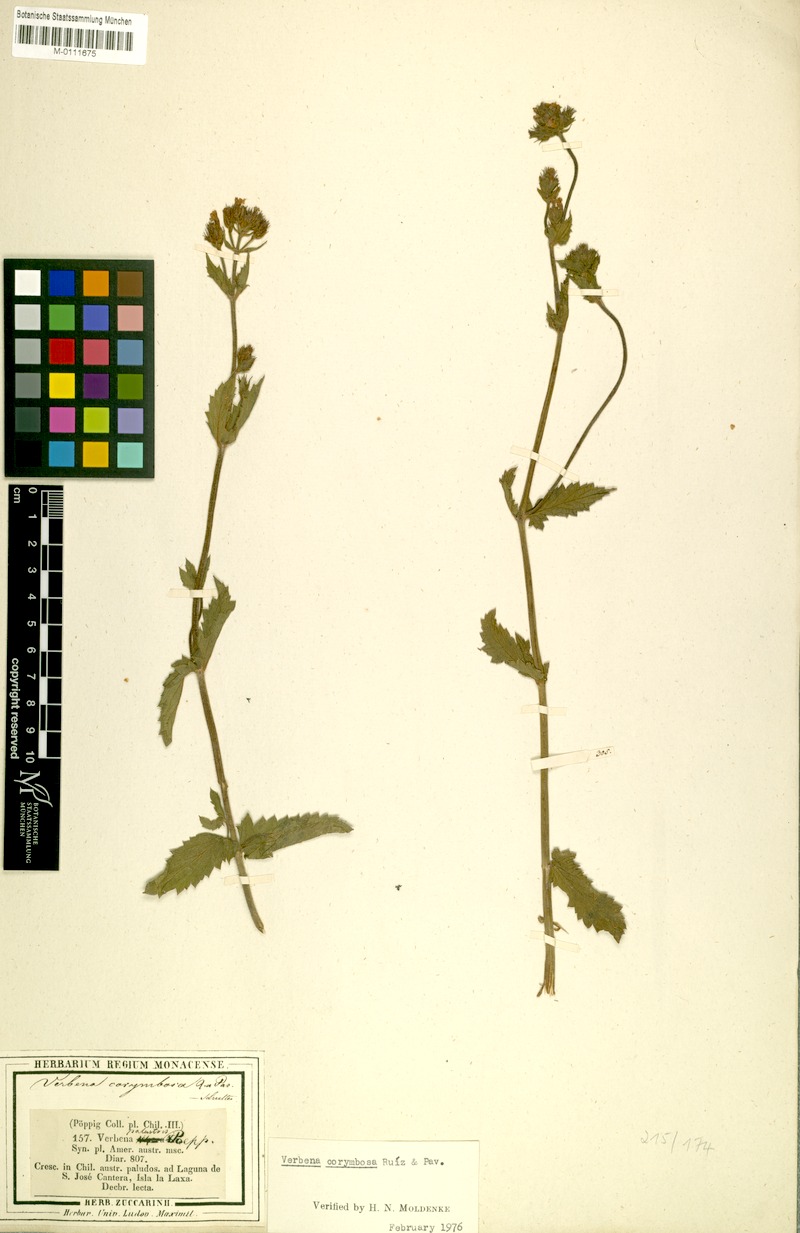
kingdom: Plantae
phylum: Tracheophyta
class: Magnoliopsida
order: Lamiales
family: Verbenaceae
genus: Verbena
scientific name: Verbena corymbosa
